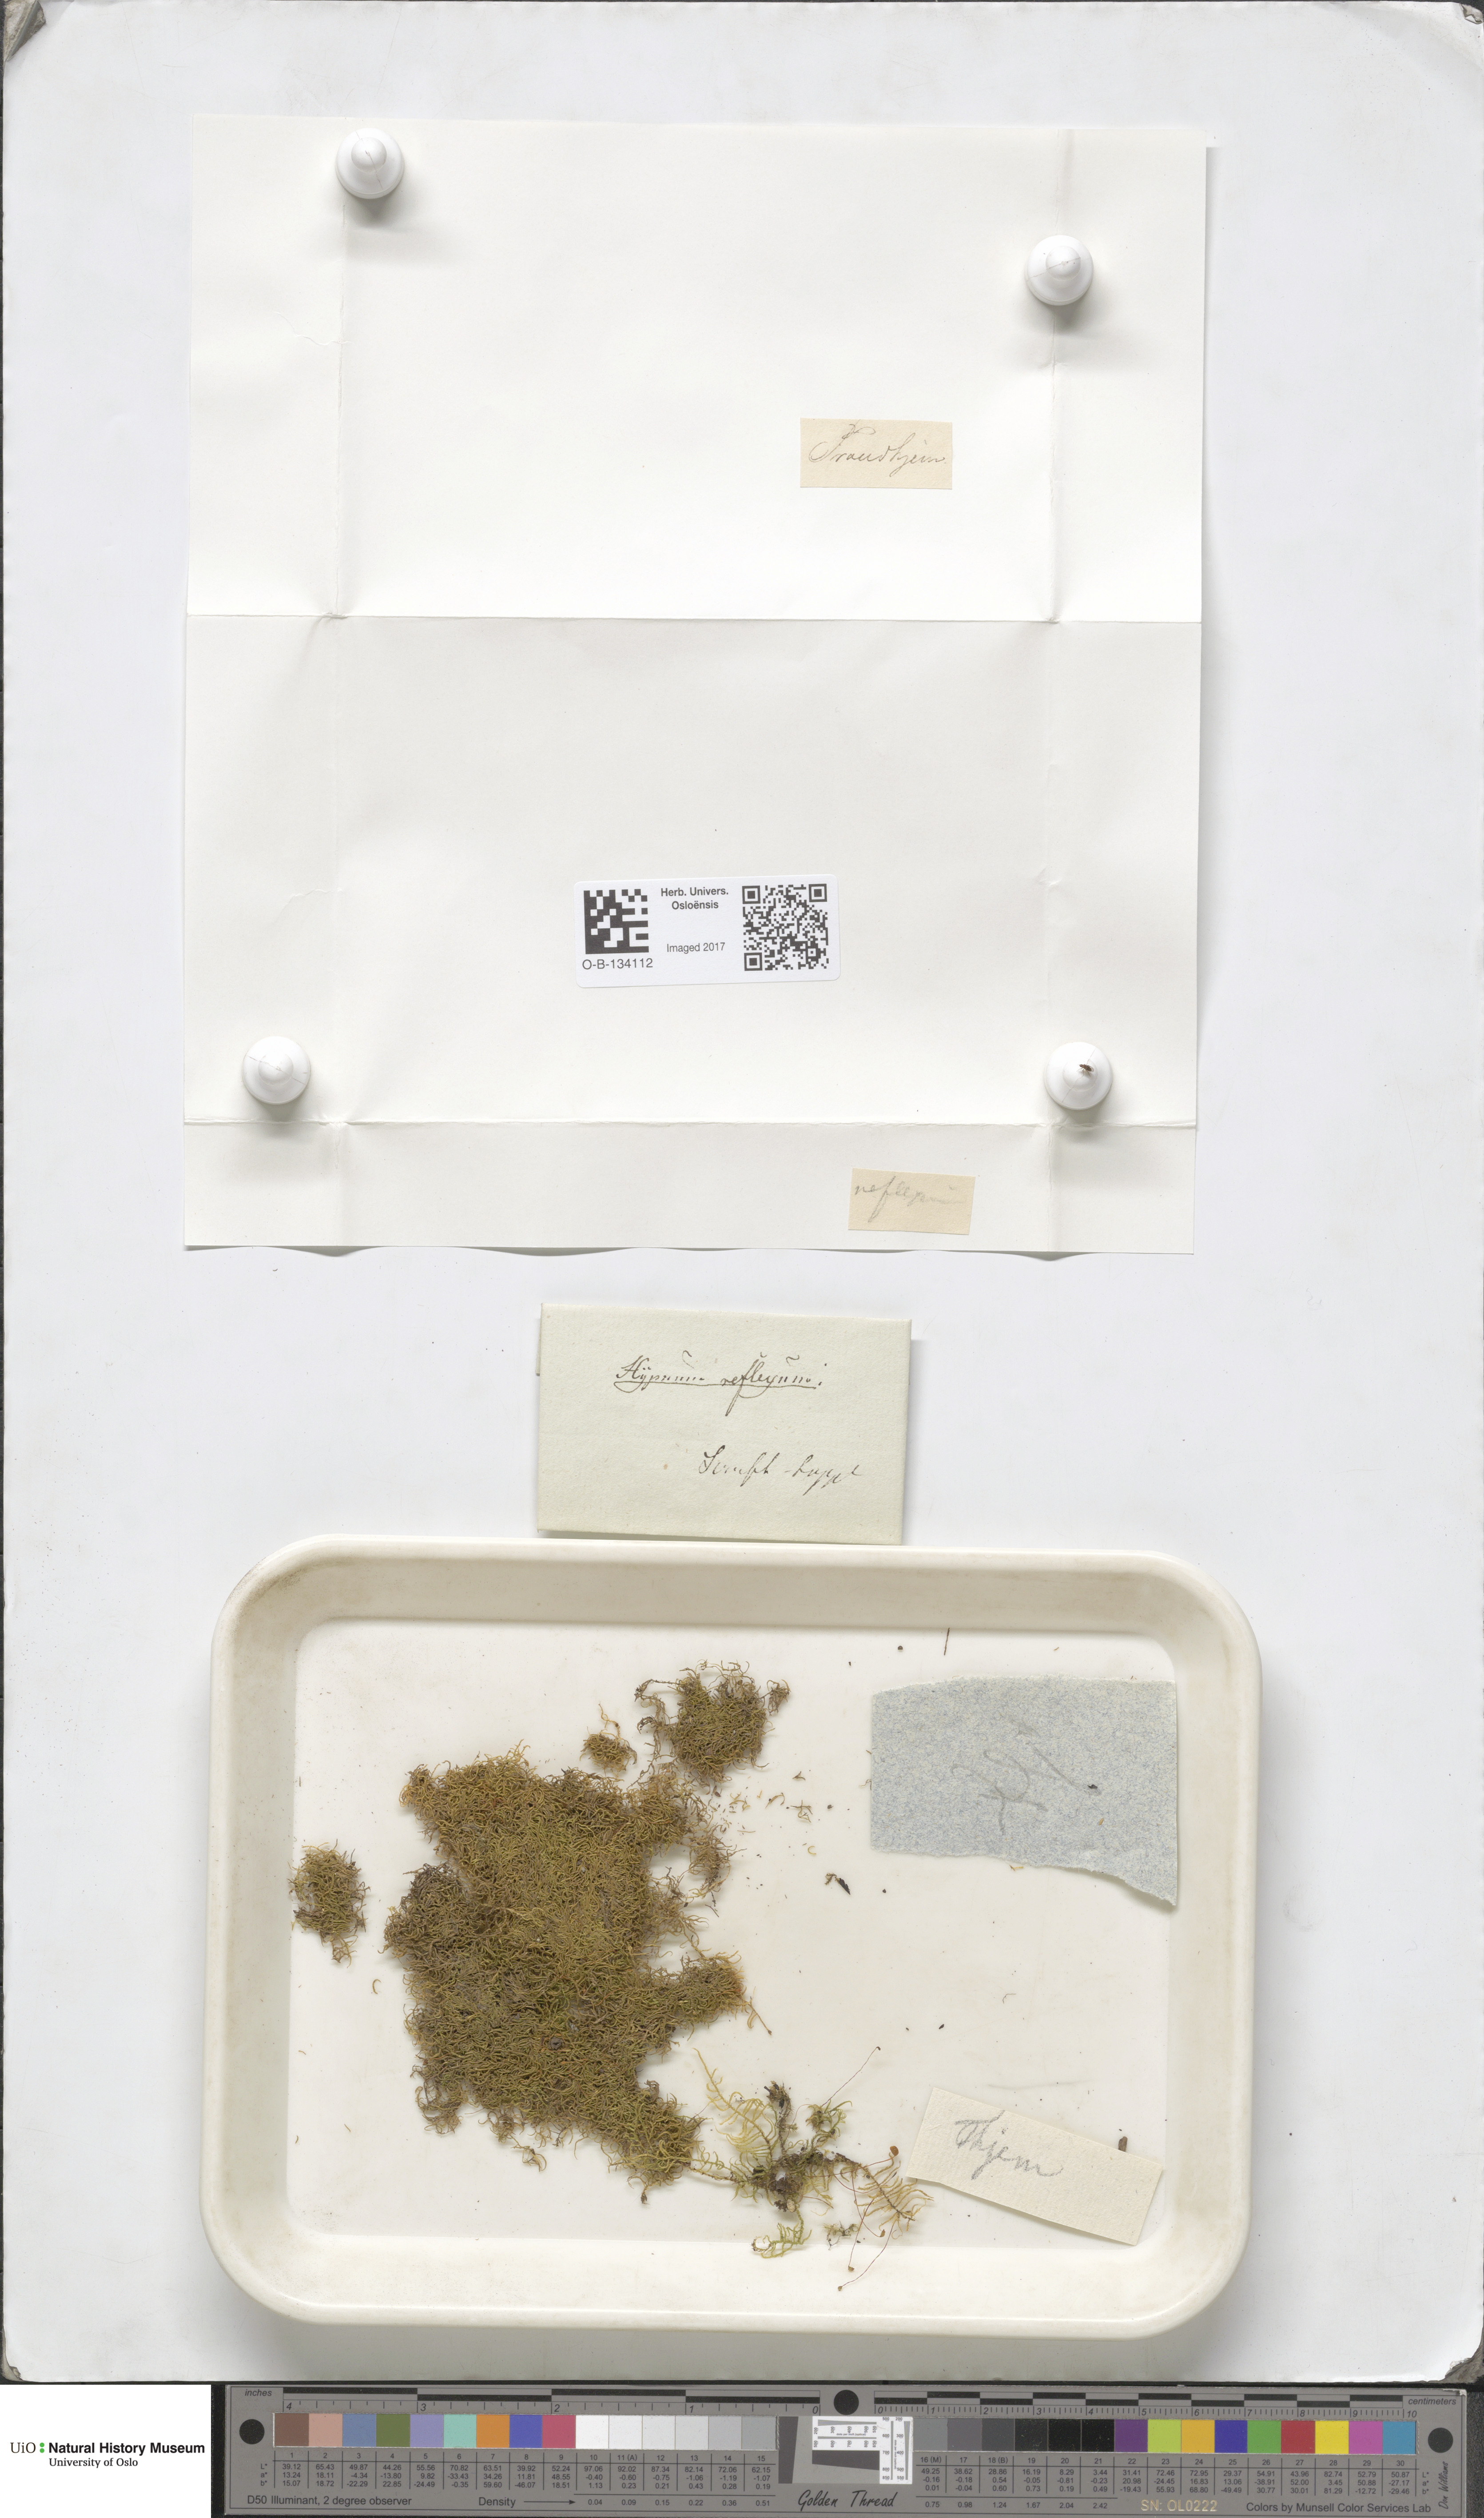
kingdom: Plantae
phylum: Bryophyta
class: Bryopsida
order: Hypnales
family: Brachytheciaceae
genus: Sciuro-hypnum
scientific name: Sciuro-hypnum reflexum
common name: Reflexed feather-moss
